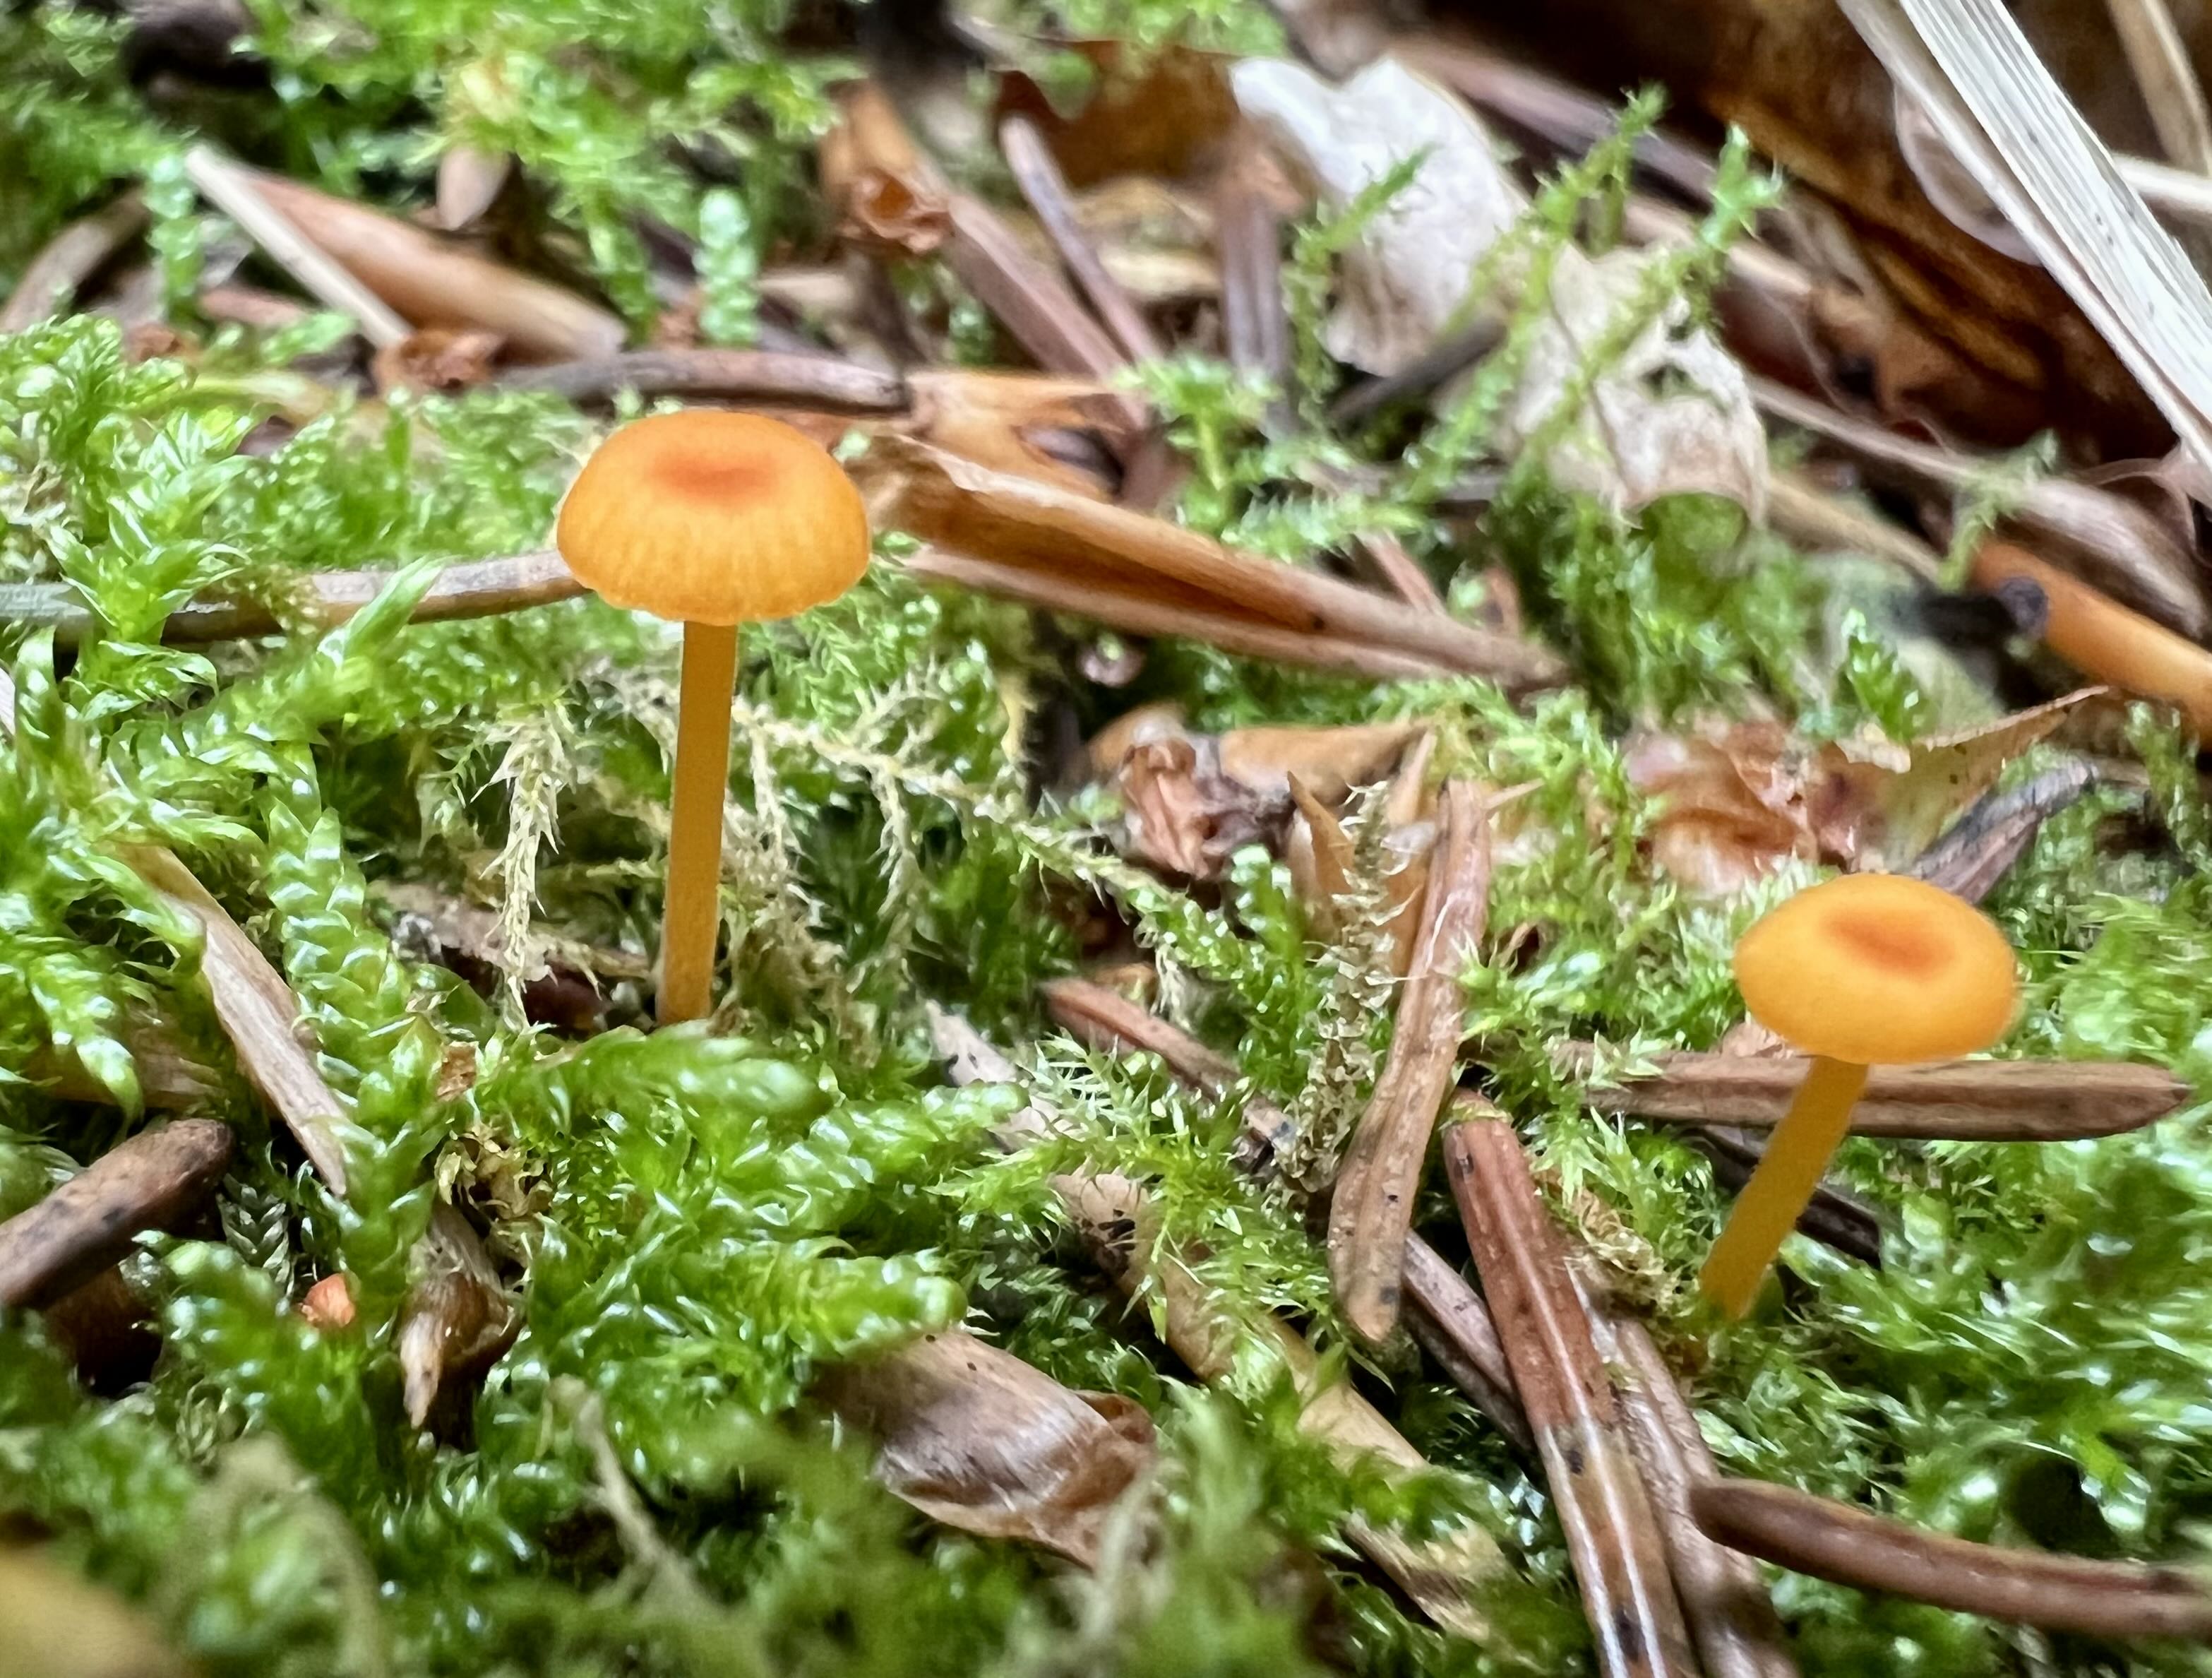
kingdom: Fungi
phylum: Basidiomycota
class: Agaricomycetes
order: Hymenochaetales
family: Rickenellaceae
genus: Rickenella
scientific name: Rickenella fibula
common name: orange mosnavlehat
